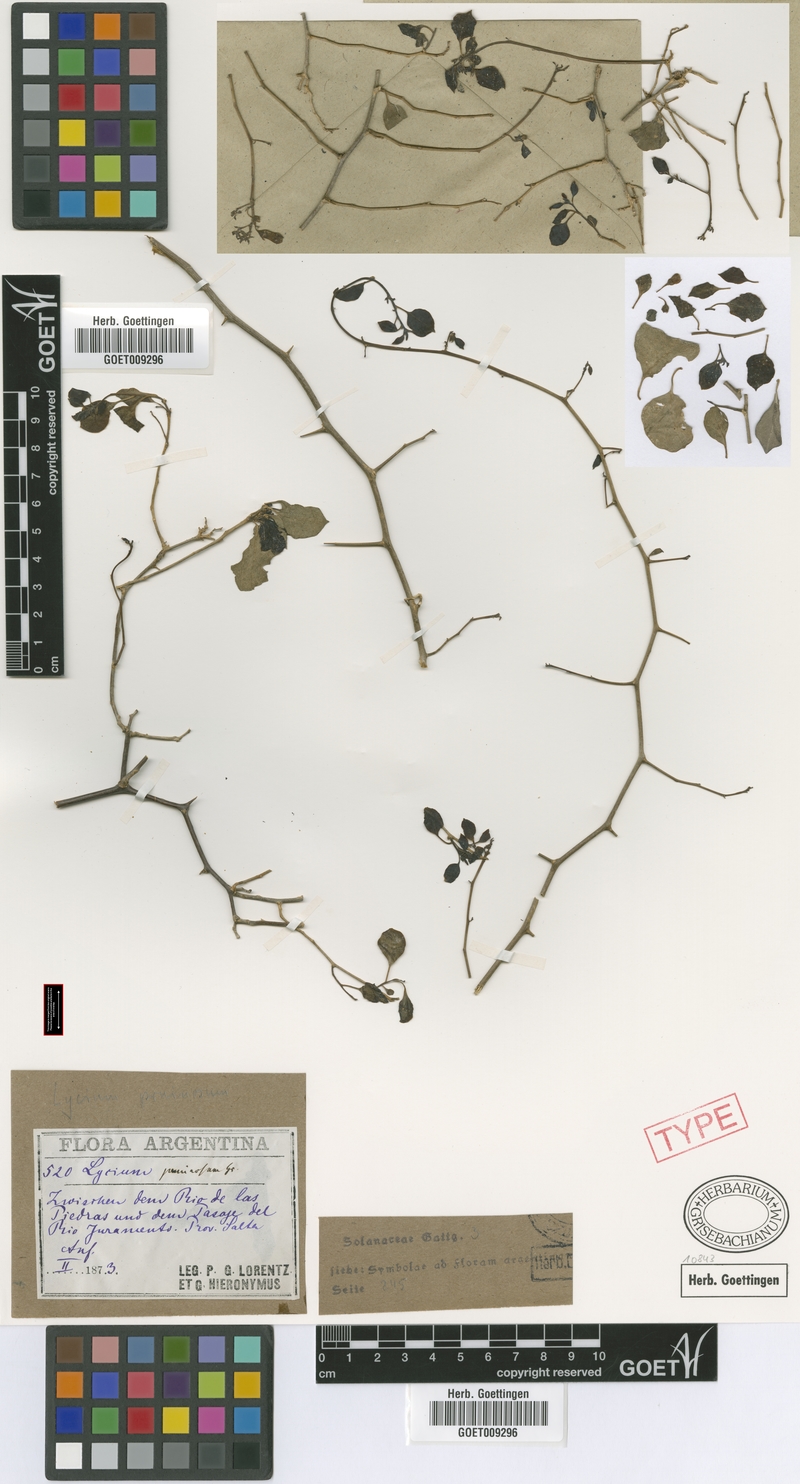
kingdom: Plantae
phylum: Tracheophyta
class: Magnoliopsida
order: Solanales
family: Solanaceae
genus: Lycium
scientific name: Lycium americanum
